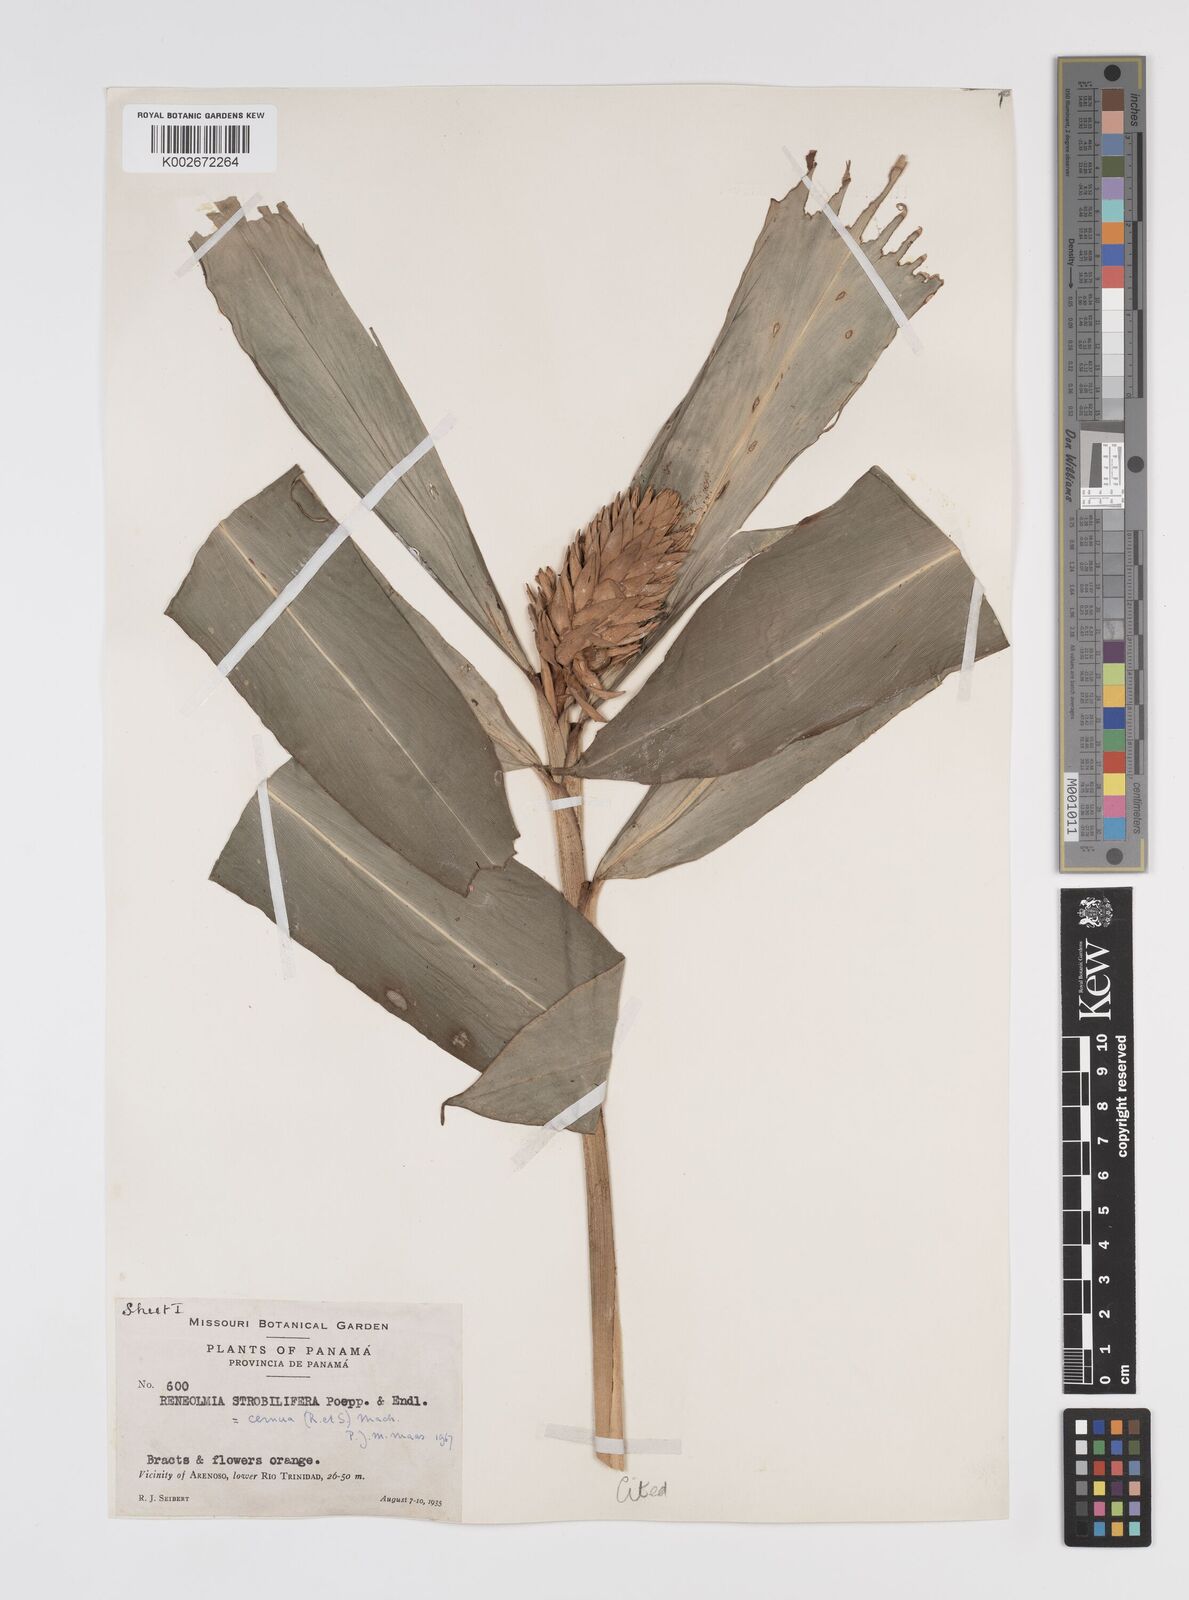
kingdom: Plantae
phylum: Tracheophyta
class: Liliopsida
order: Zingiberales
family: Zingiberaceae
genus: Renealmia
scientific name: Renealmia cernua
